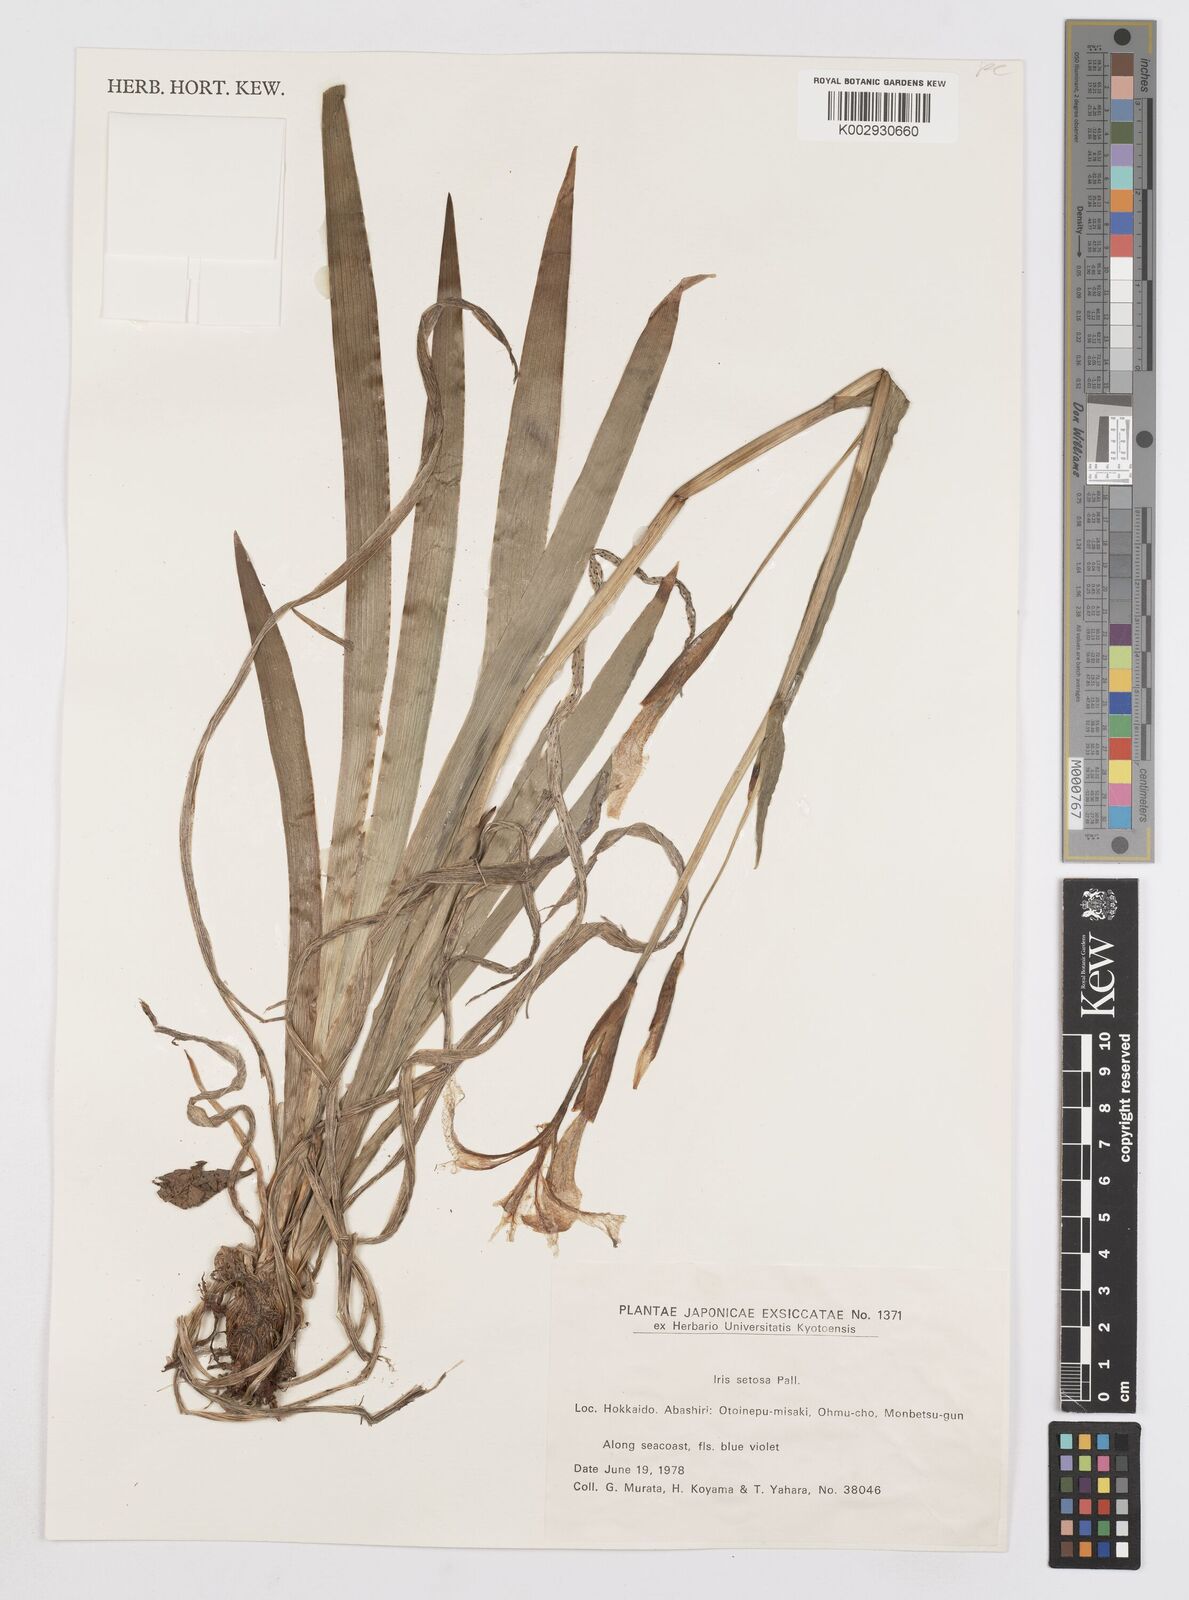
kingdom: Plantae
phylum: Tracheophyta
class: Liliopsida
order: Asparagales
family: Iridaceae
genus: Iris
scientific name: Iris setosa
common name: Arctic blue flag
